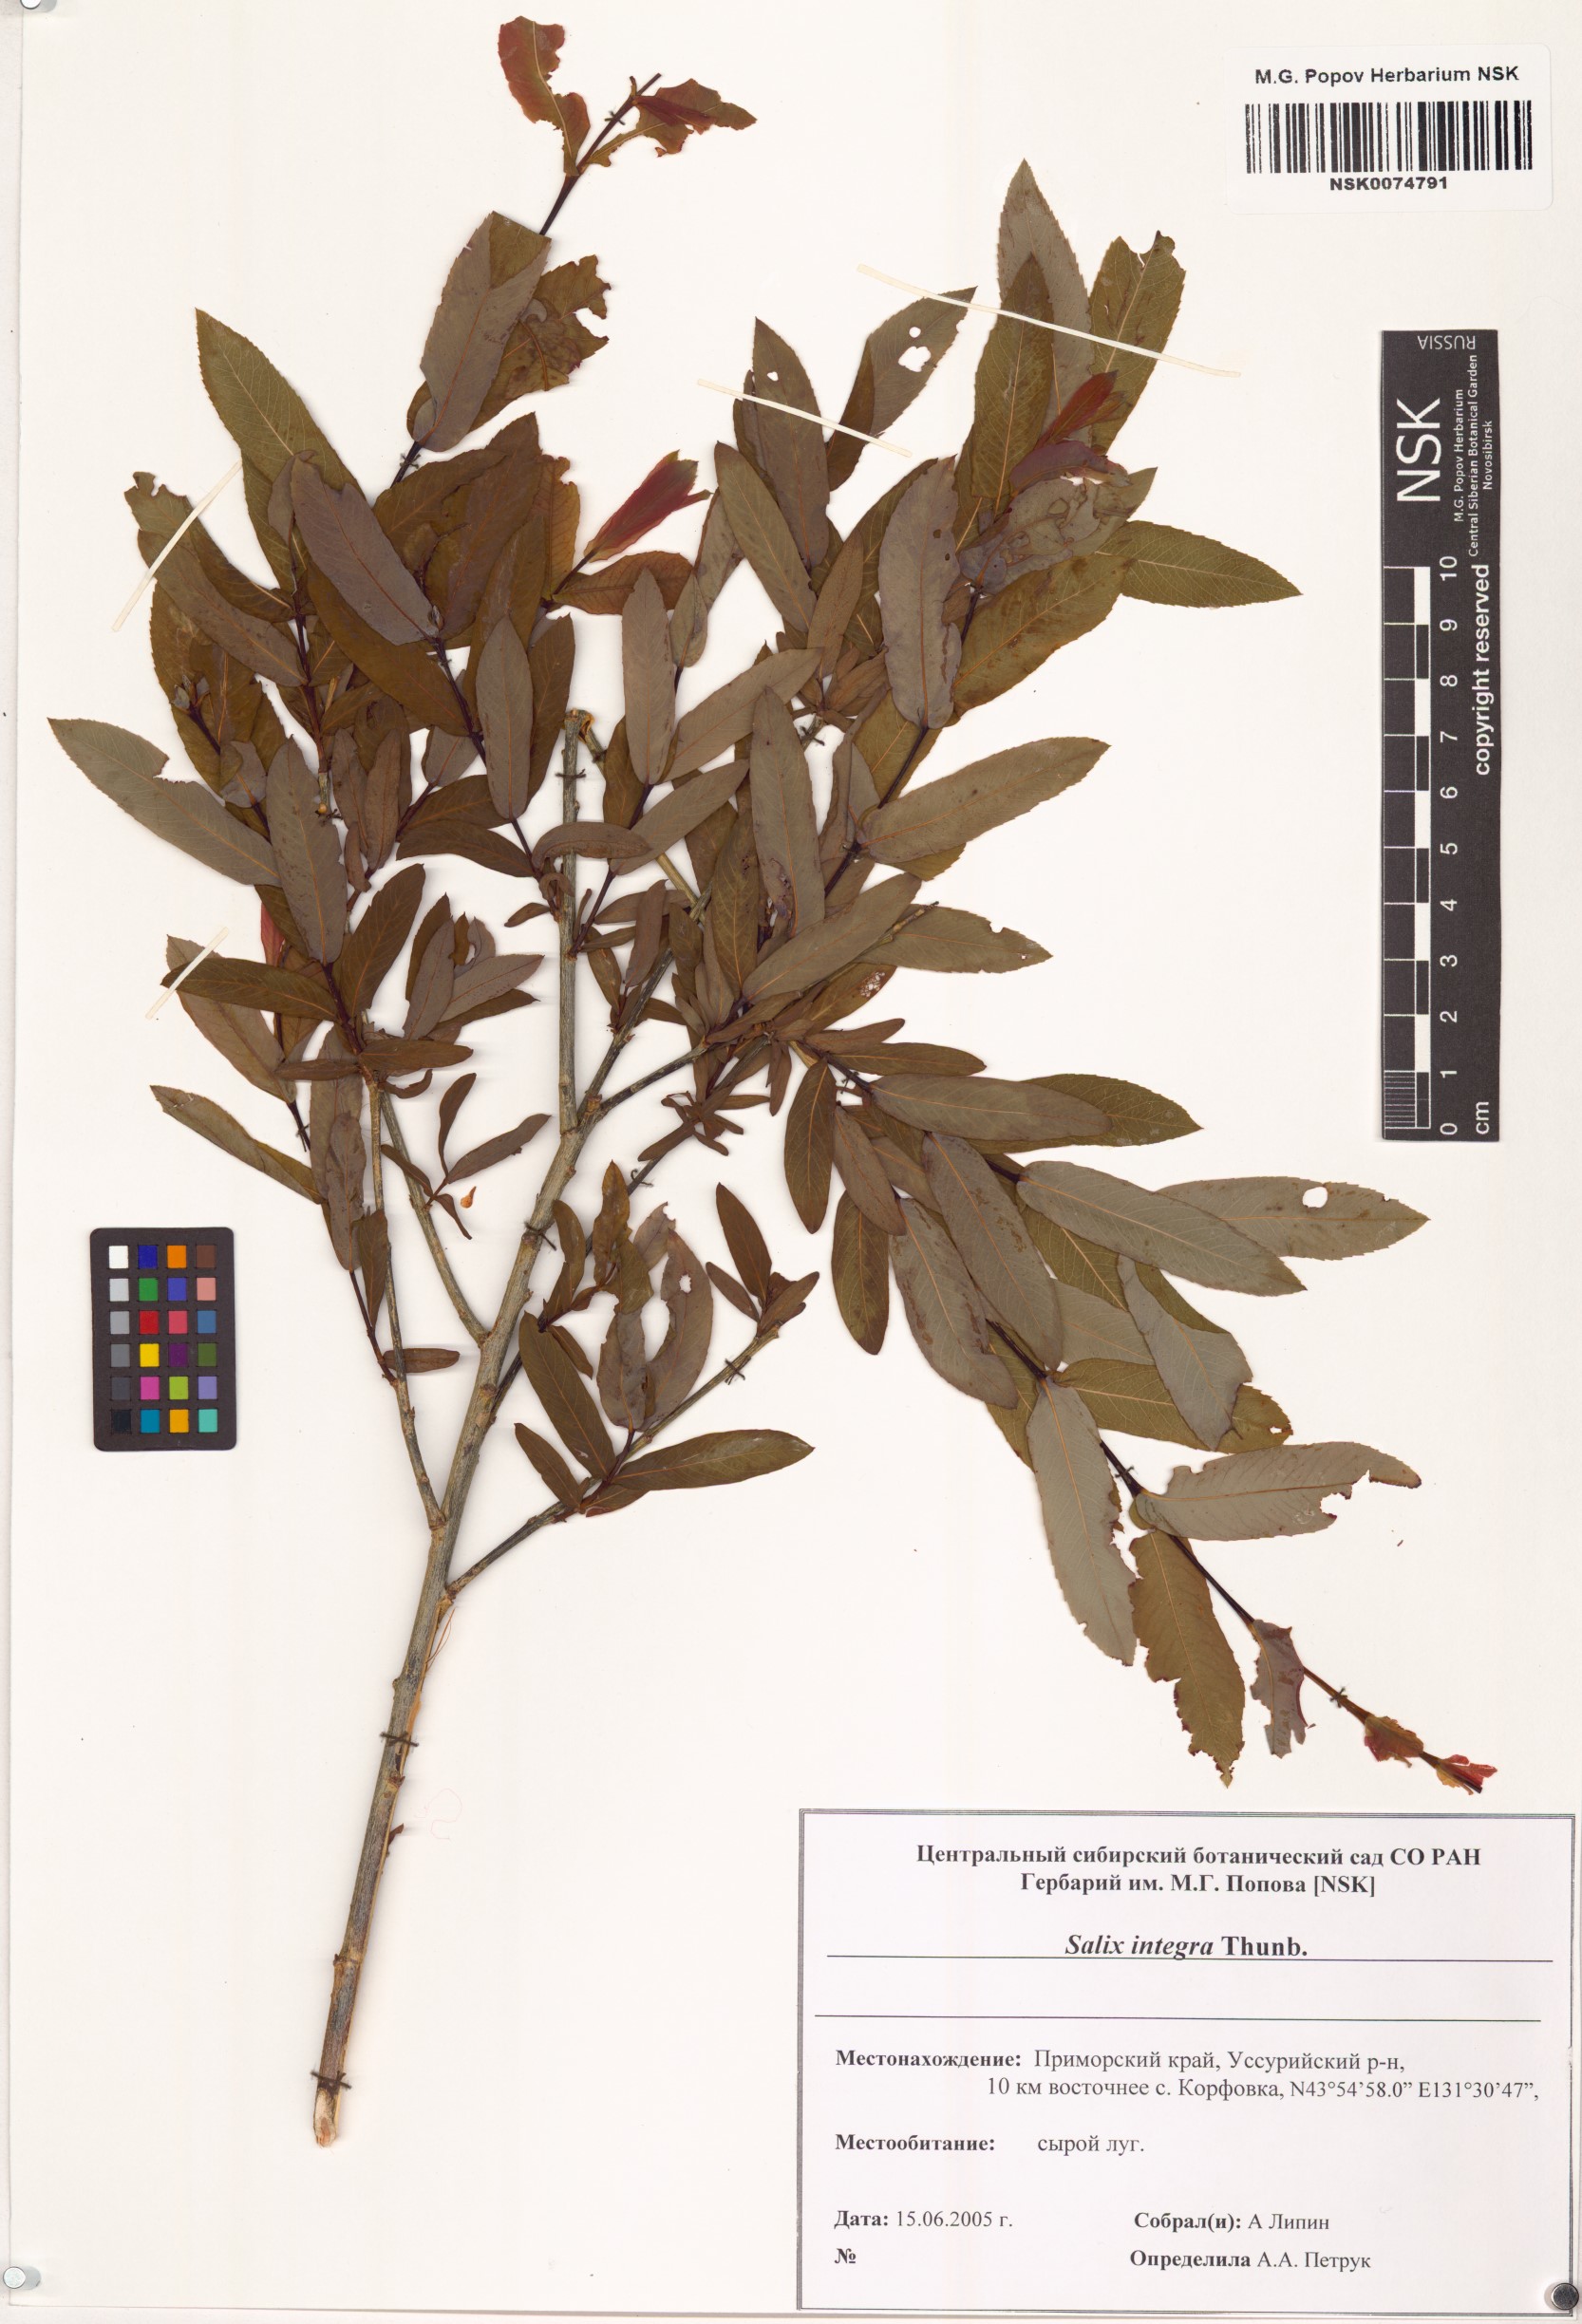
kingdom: Plantae
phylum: Tracheophyta
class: Magnoliopsida
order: Malpighiales
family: Salicaceae
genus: Salix
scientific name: Salix integra
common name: Dappled willow
